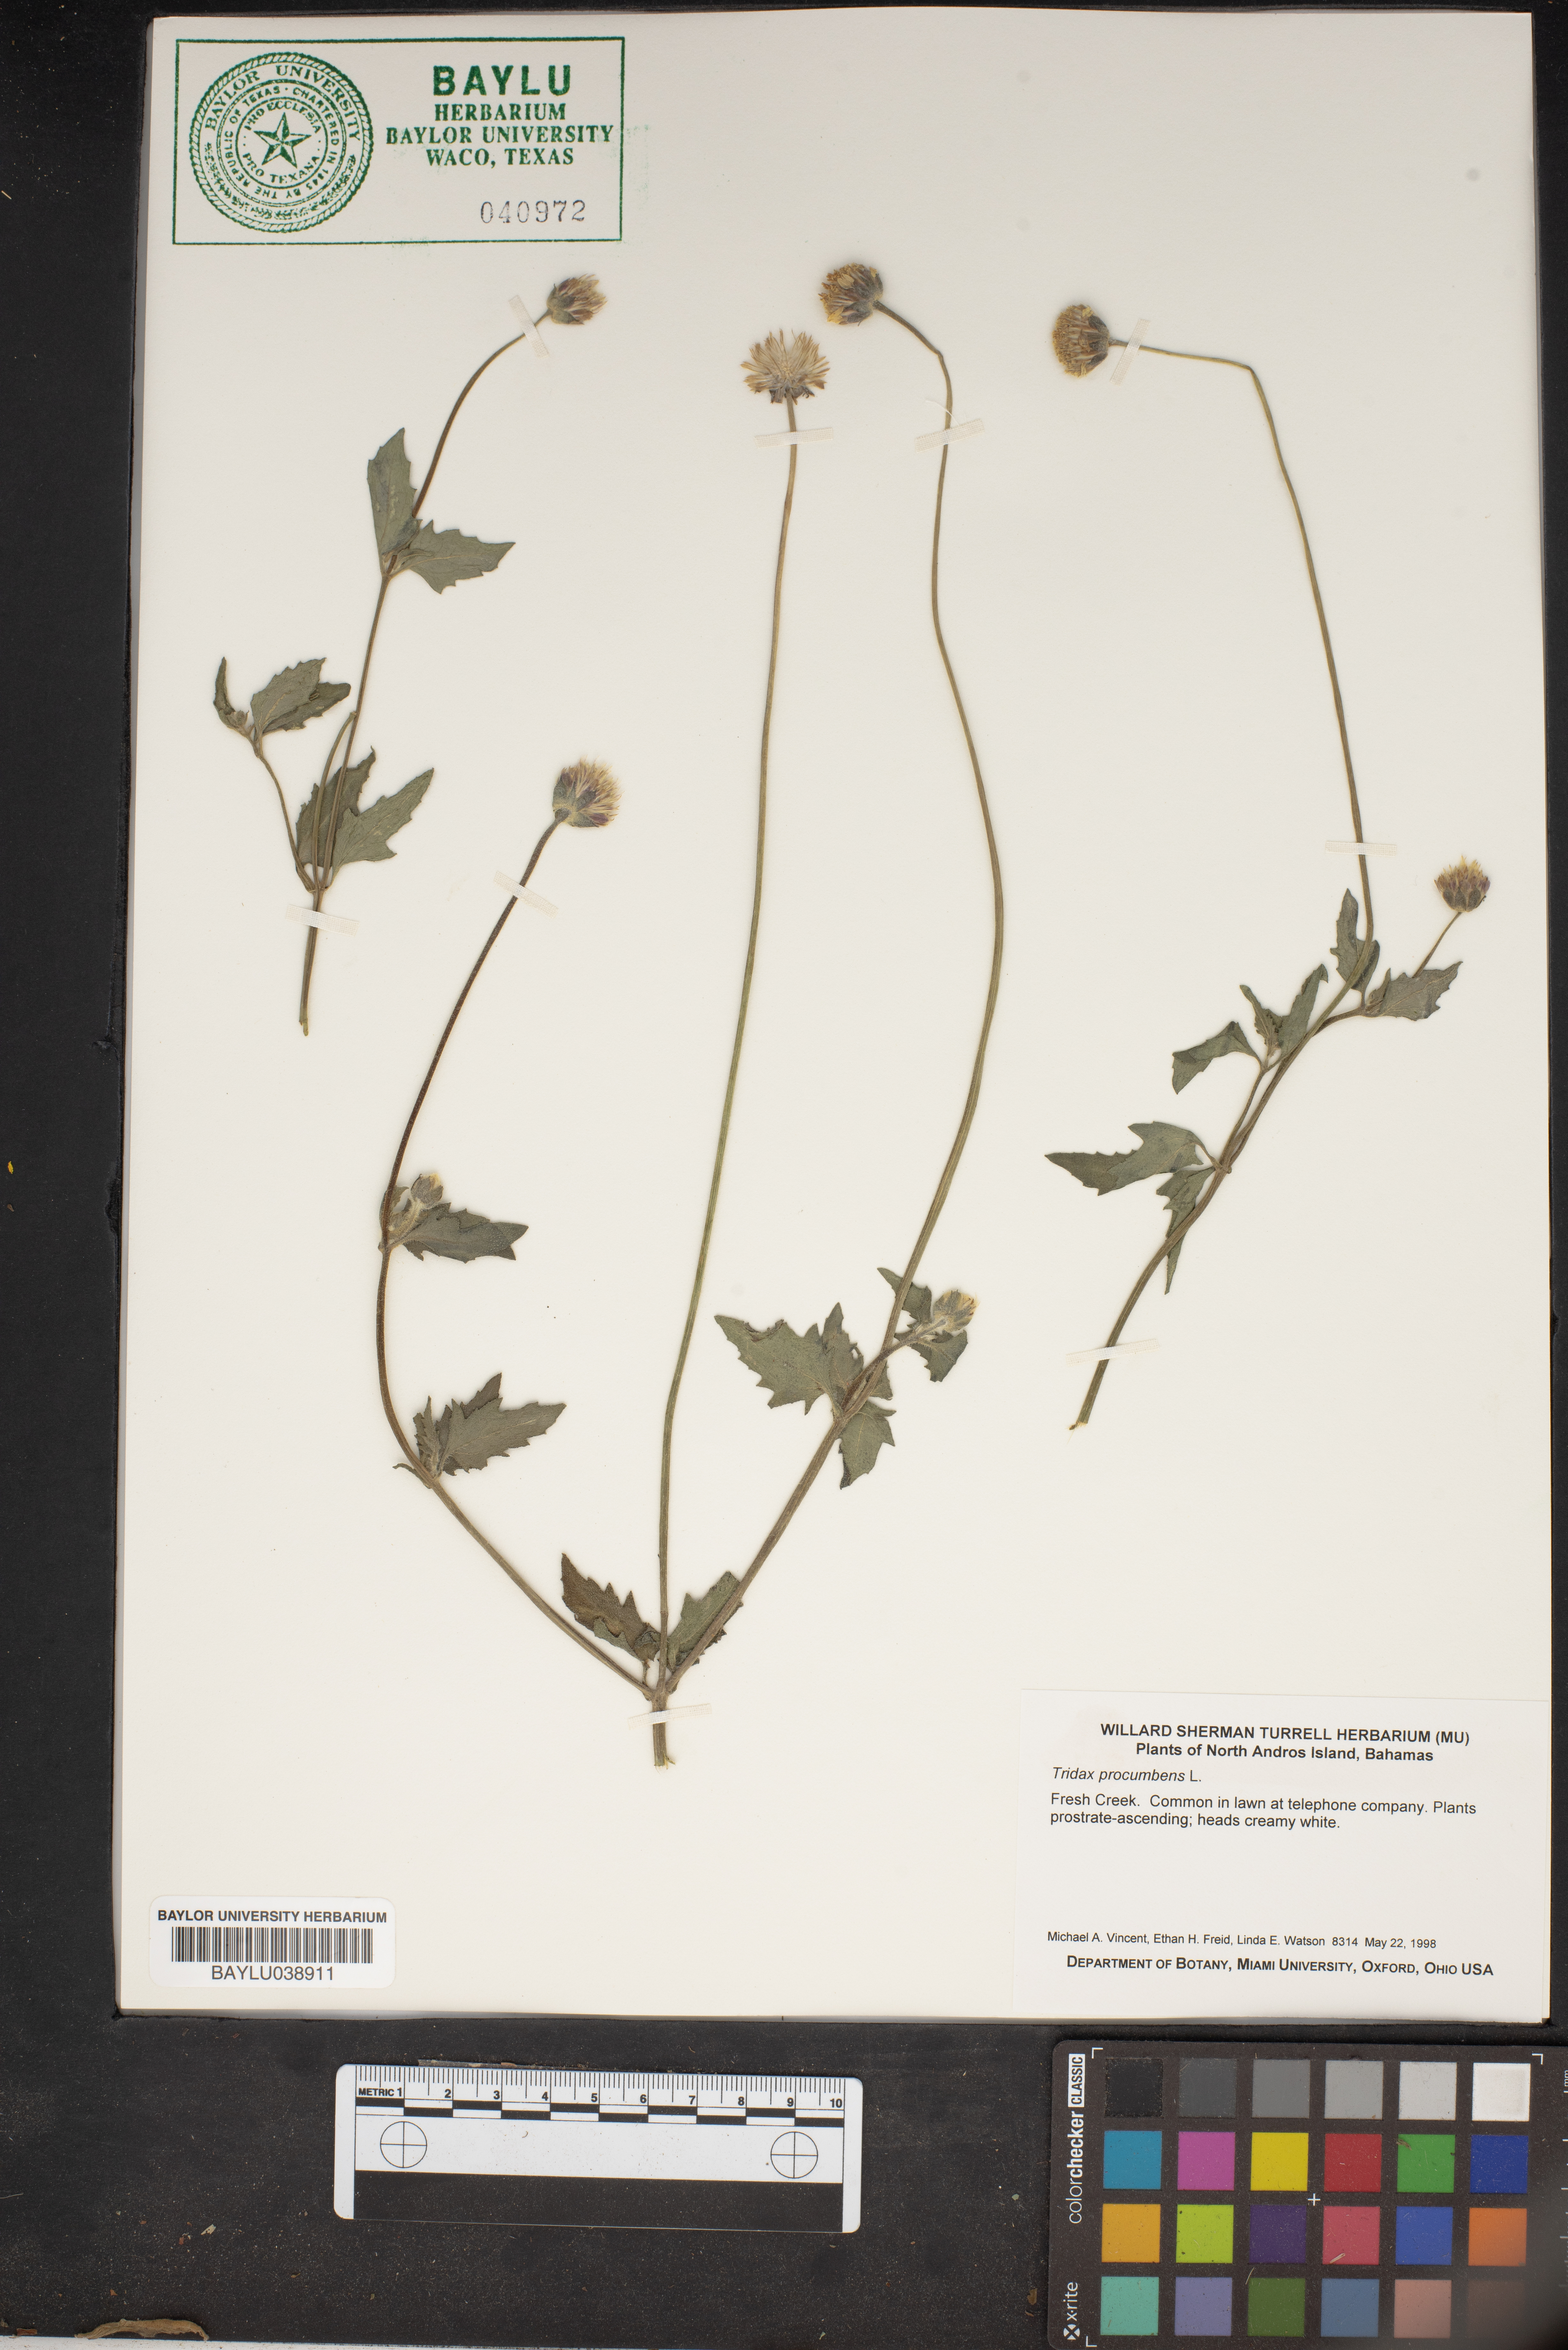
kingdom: Plantae
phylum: Tracheophyta
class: Magnoliopsida
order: Asterales
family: Asteraceae
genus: Tridax
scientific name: Tridax procumbens
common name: Coatbuttons
